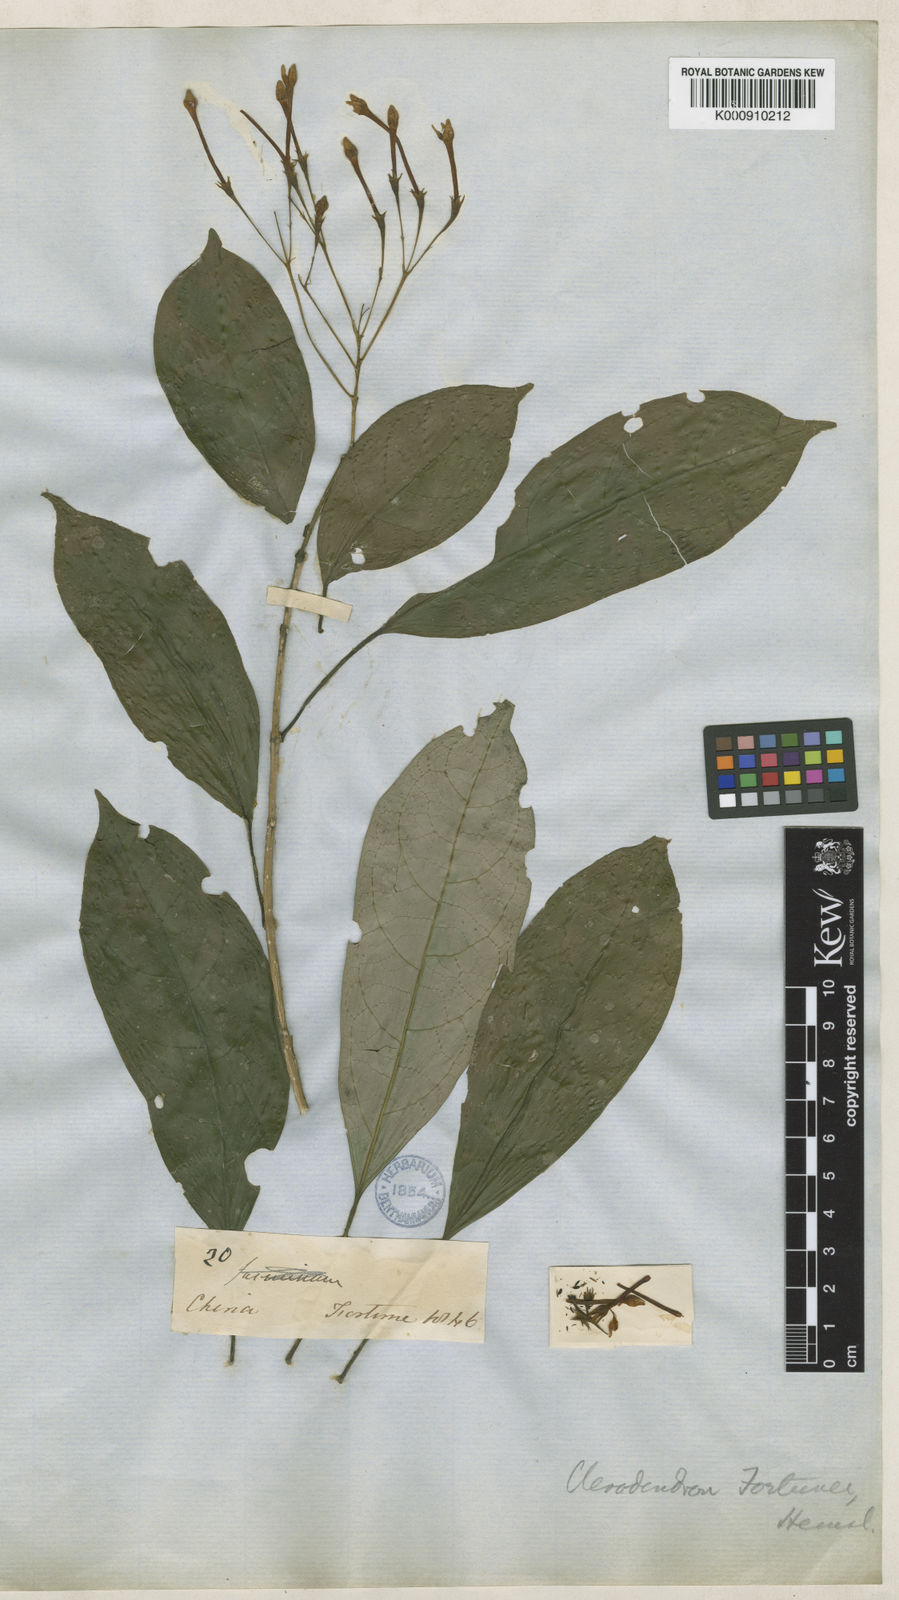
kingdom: Plantae
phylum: Tracheophyta
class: Magnoliopsida
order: Lamiales
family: Lamiaceae
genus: Clerodendrum
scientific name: Clerodendrum fortunei
